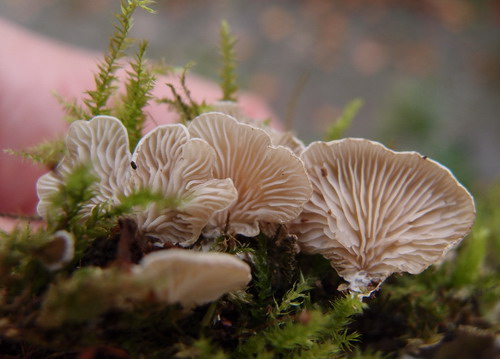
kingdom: Fungi
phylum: Basidiomycota
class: Agaricomycetes
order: Agaricales
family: Entolomataceae
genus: Clitopilus
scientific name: Clitopilus hobsonii
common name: Miller's oysterling
